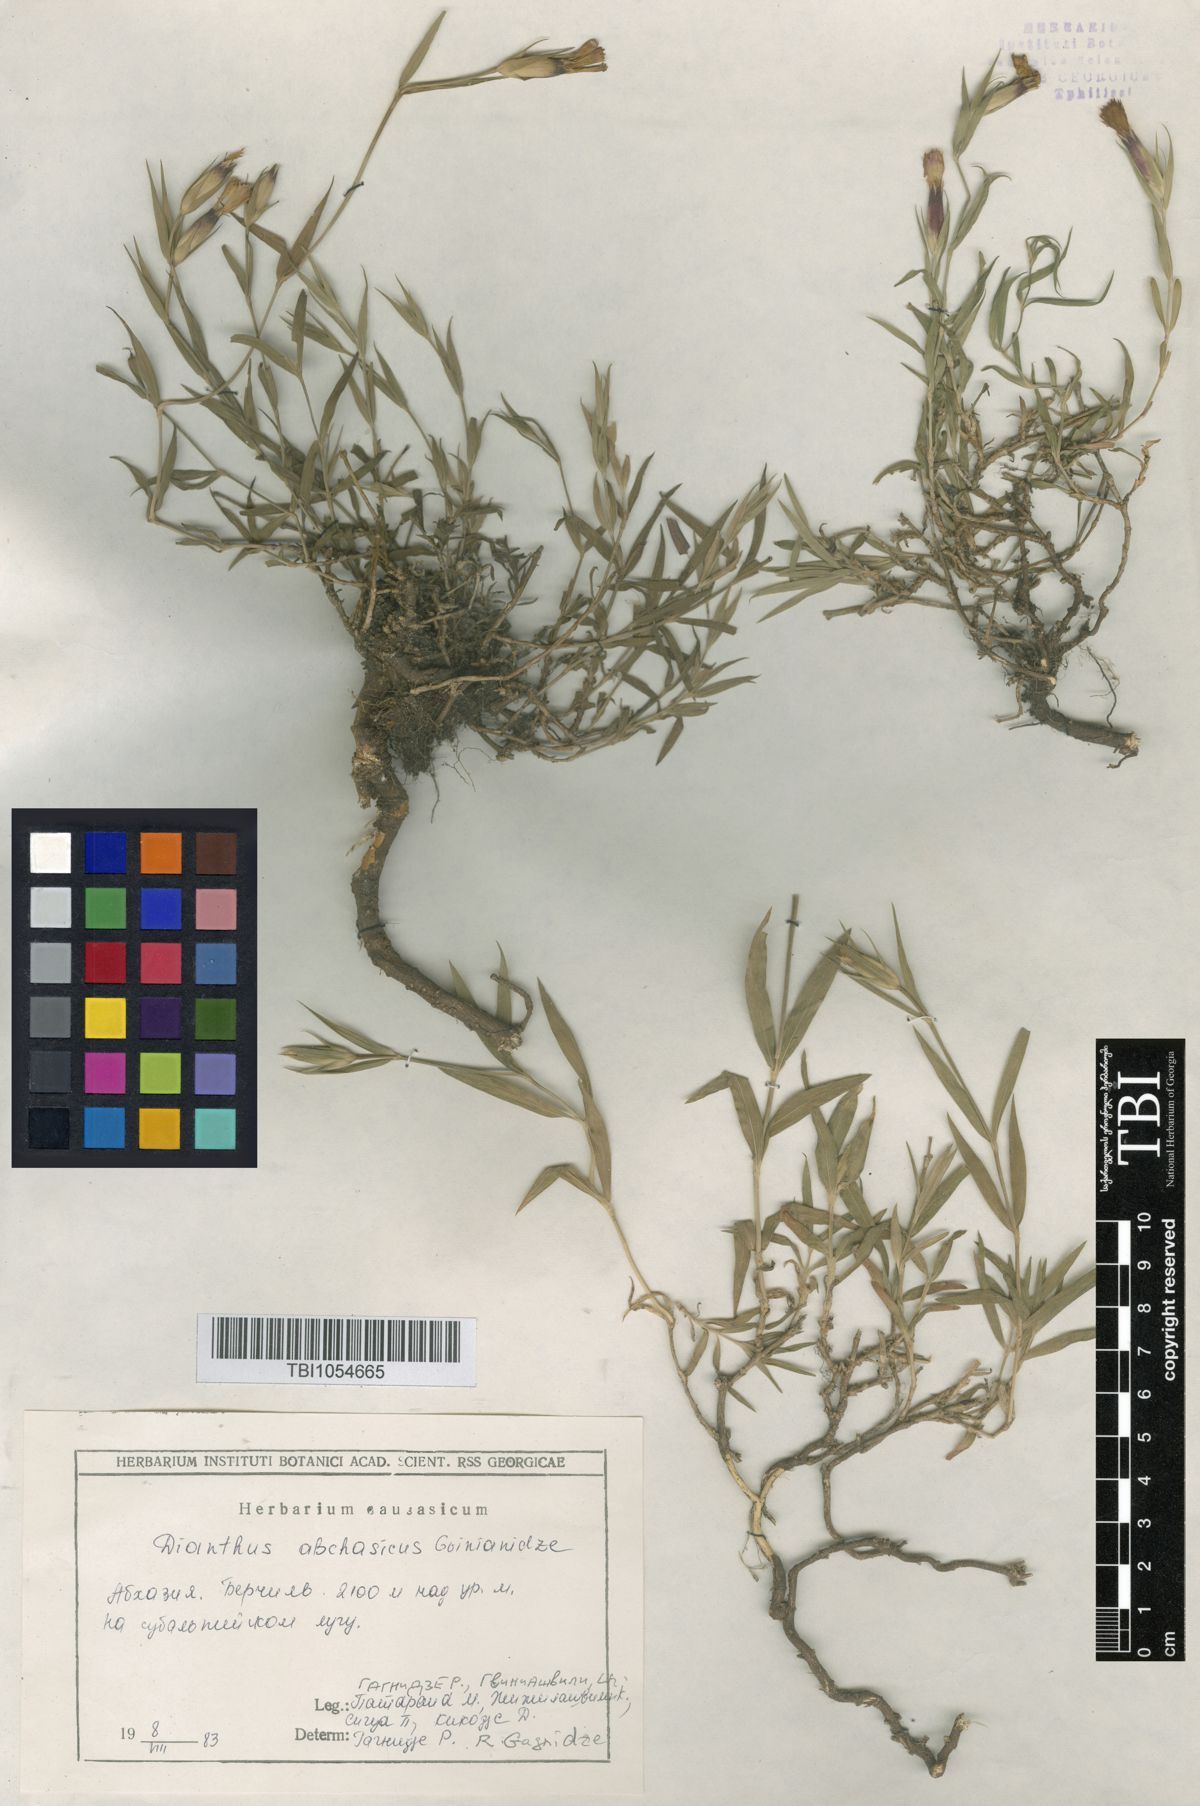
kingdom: Plantae
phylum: Tracheophyta
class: Magnoliopsida
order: Caryophyllales
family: Caryophyllaceae
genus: Dianthus
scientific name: Dianthus kusnezovii
